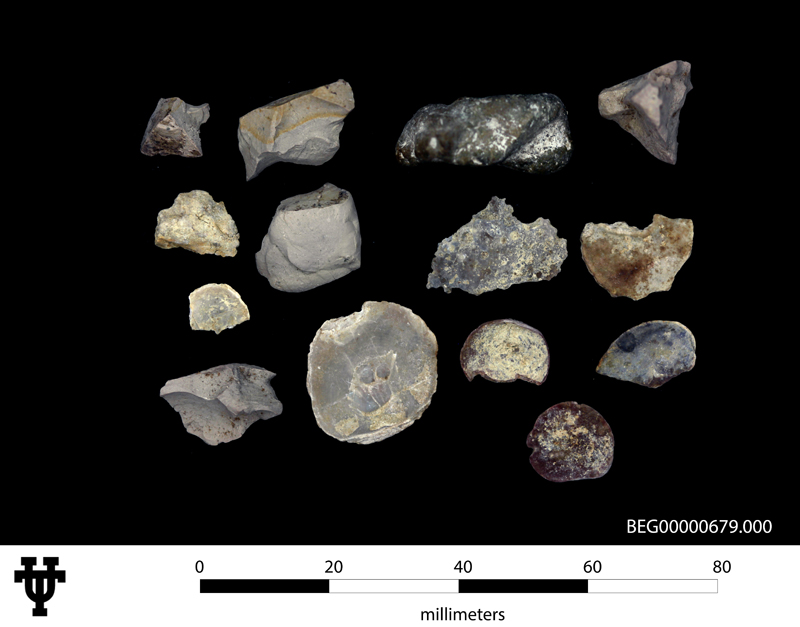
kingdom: Animalia
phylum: Mollusca
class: Bivalvia
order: Ostreida
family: Ostreidae
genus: Ostrea
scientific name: Ostrea falcata
